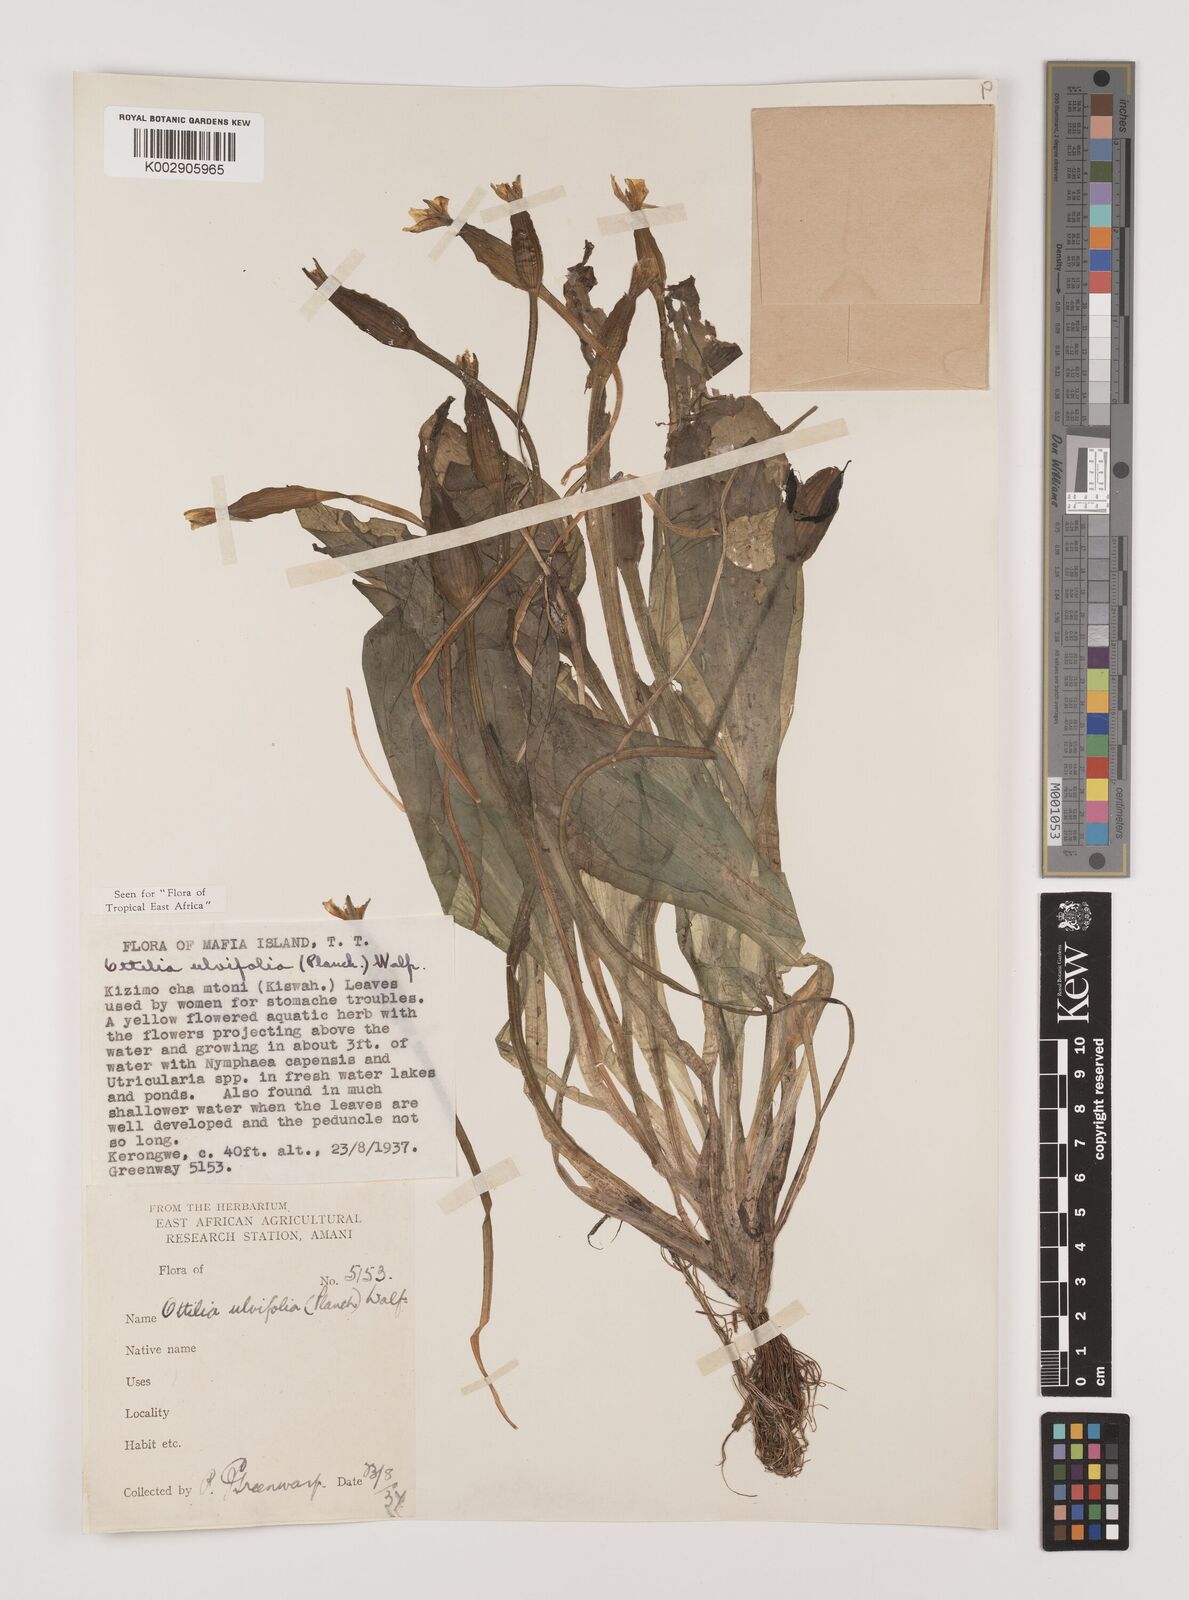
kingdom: Plantae
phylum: Tracheophyta
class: Liliopsida
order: Alismatales
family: Hydrocharitaceae
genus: Ottelia
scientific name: Ottelia ulvifolia
